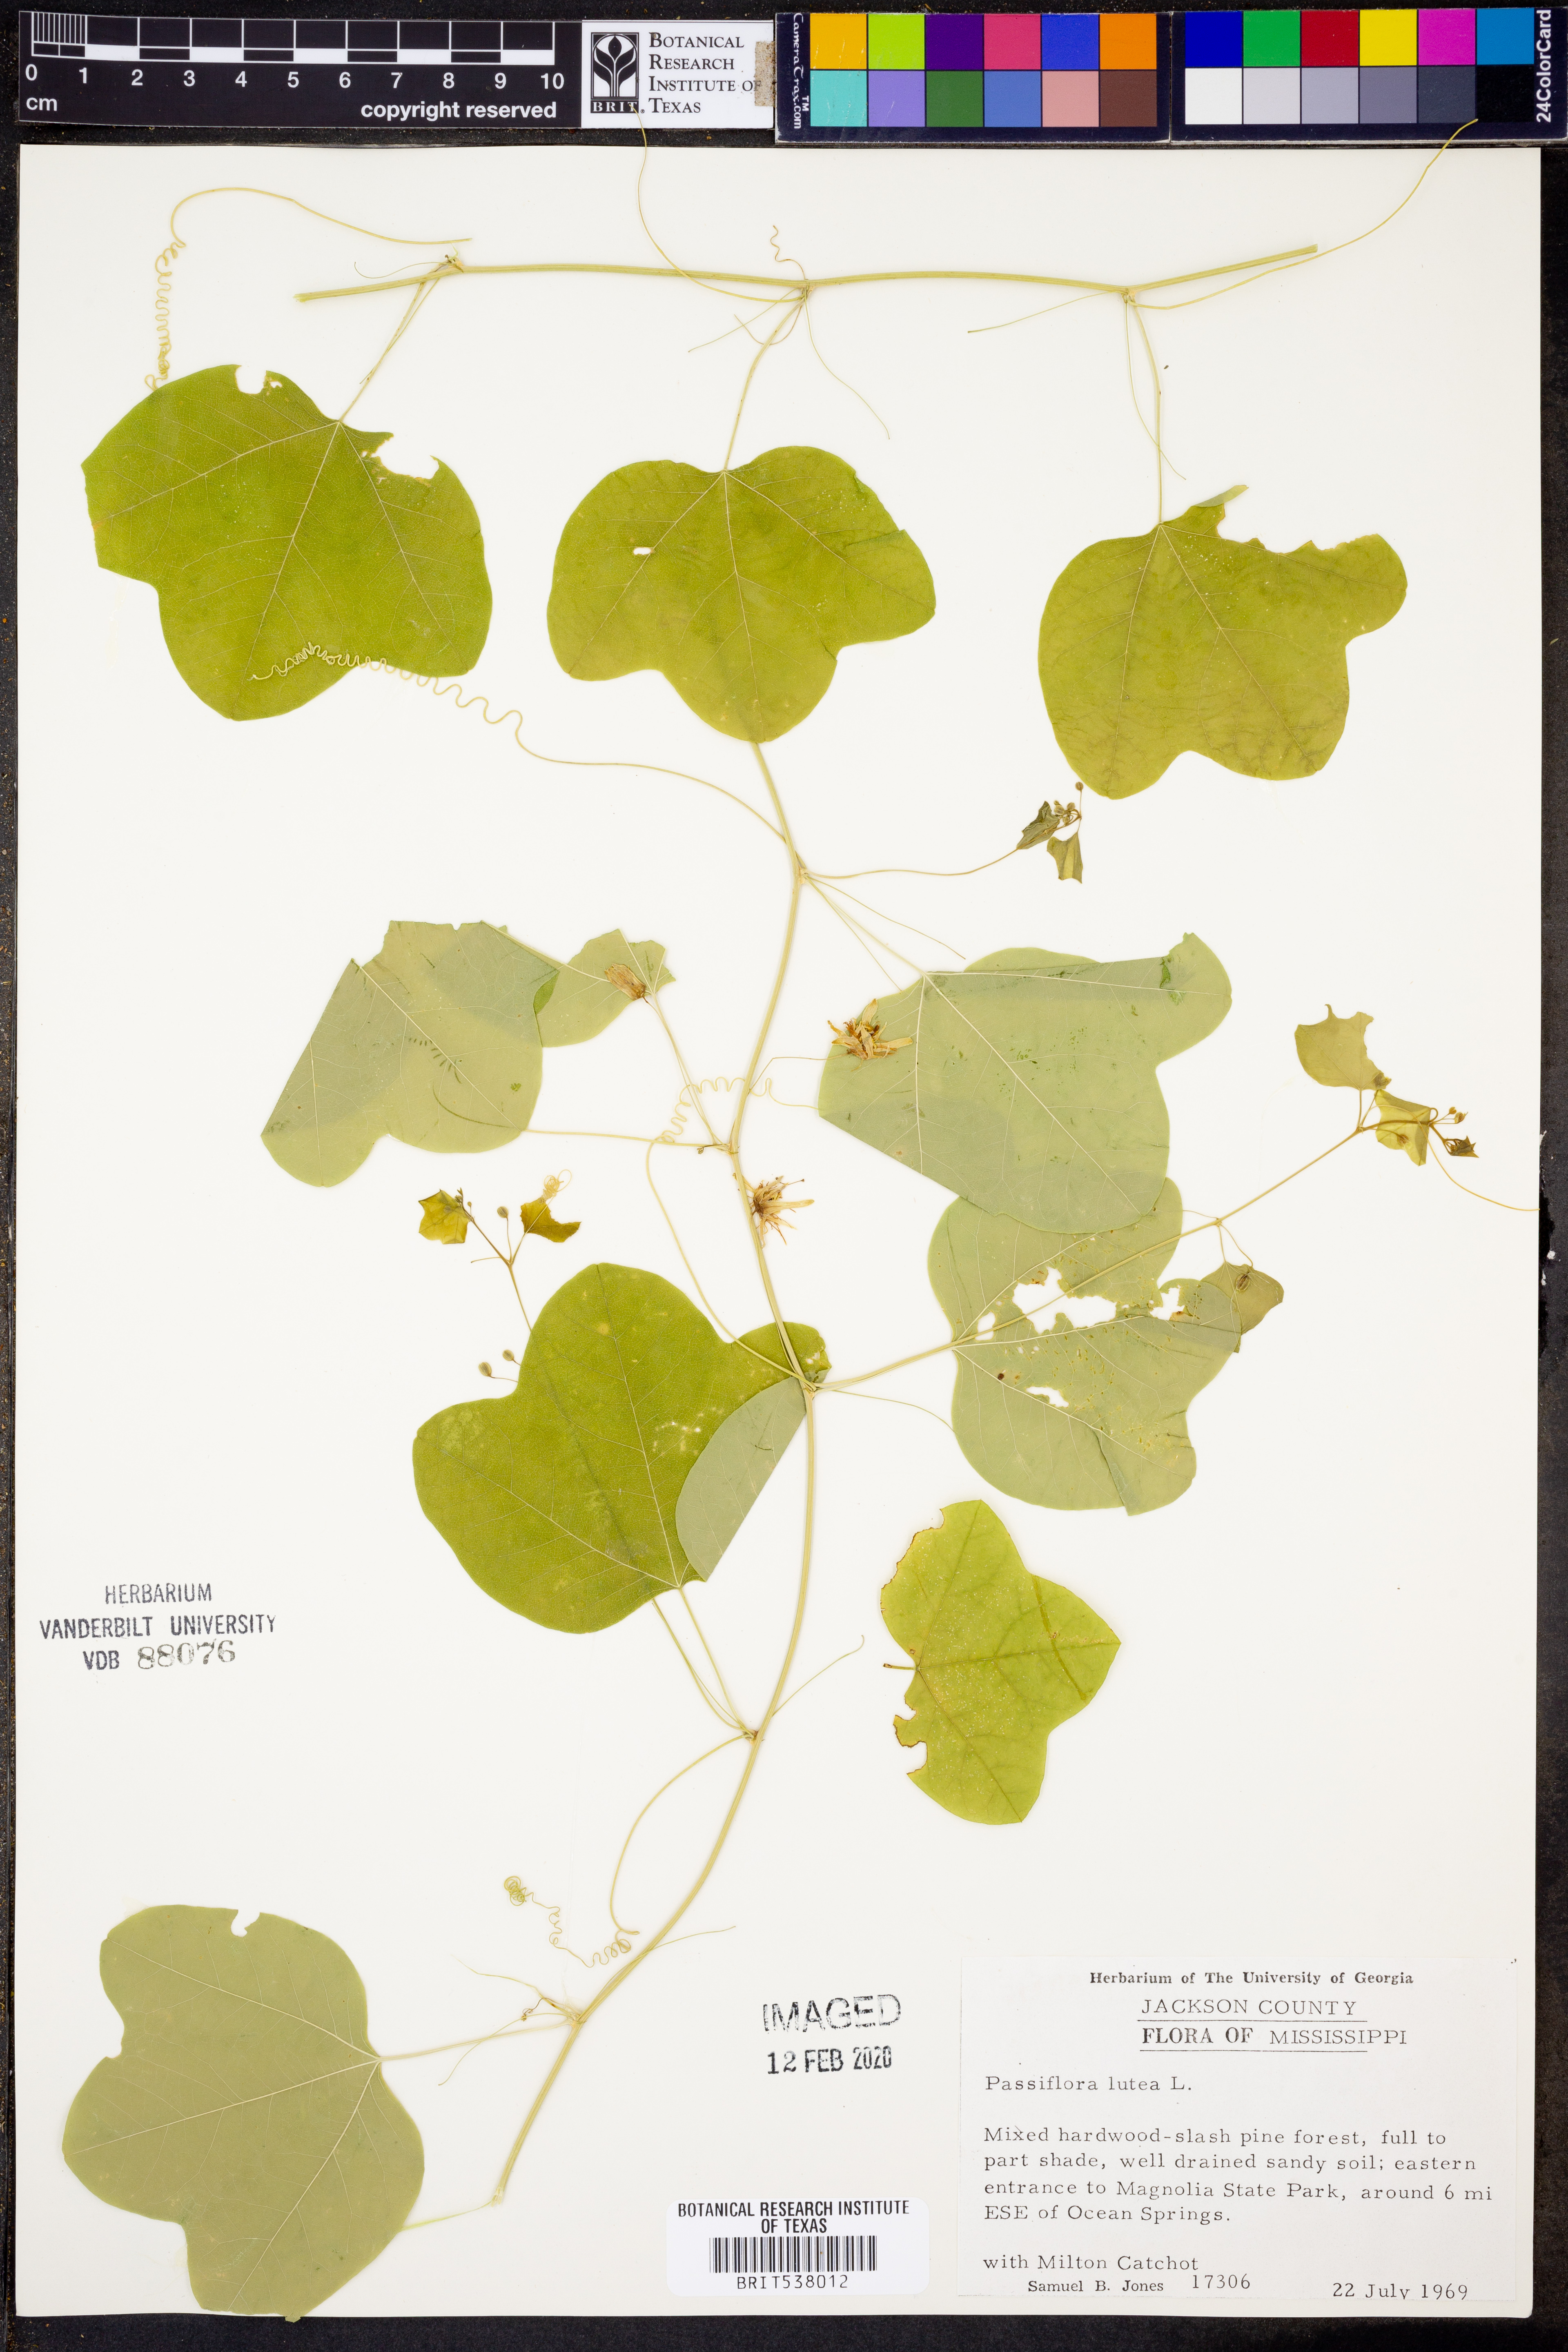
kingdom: Plantae
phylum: Tracheophyta
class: Magnoliopsida
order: Malpighiales
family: Passifloraceae
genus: Passiflora
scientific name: Passiflora lutea
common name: Yellow passionflower
